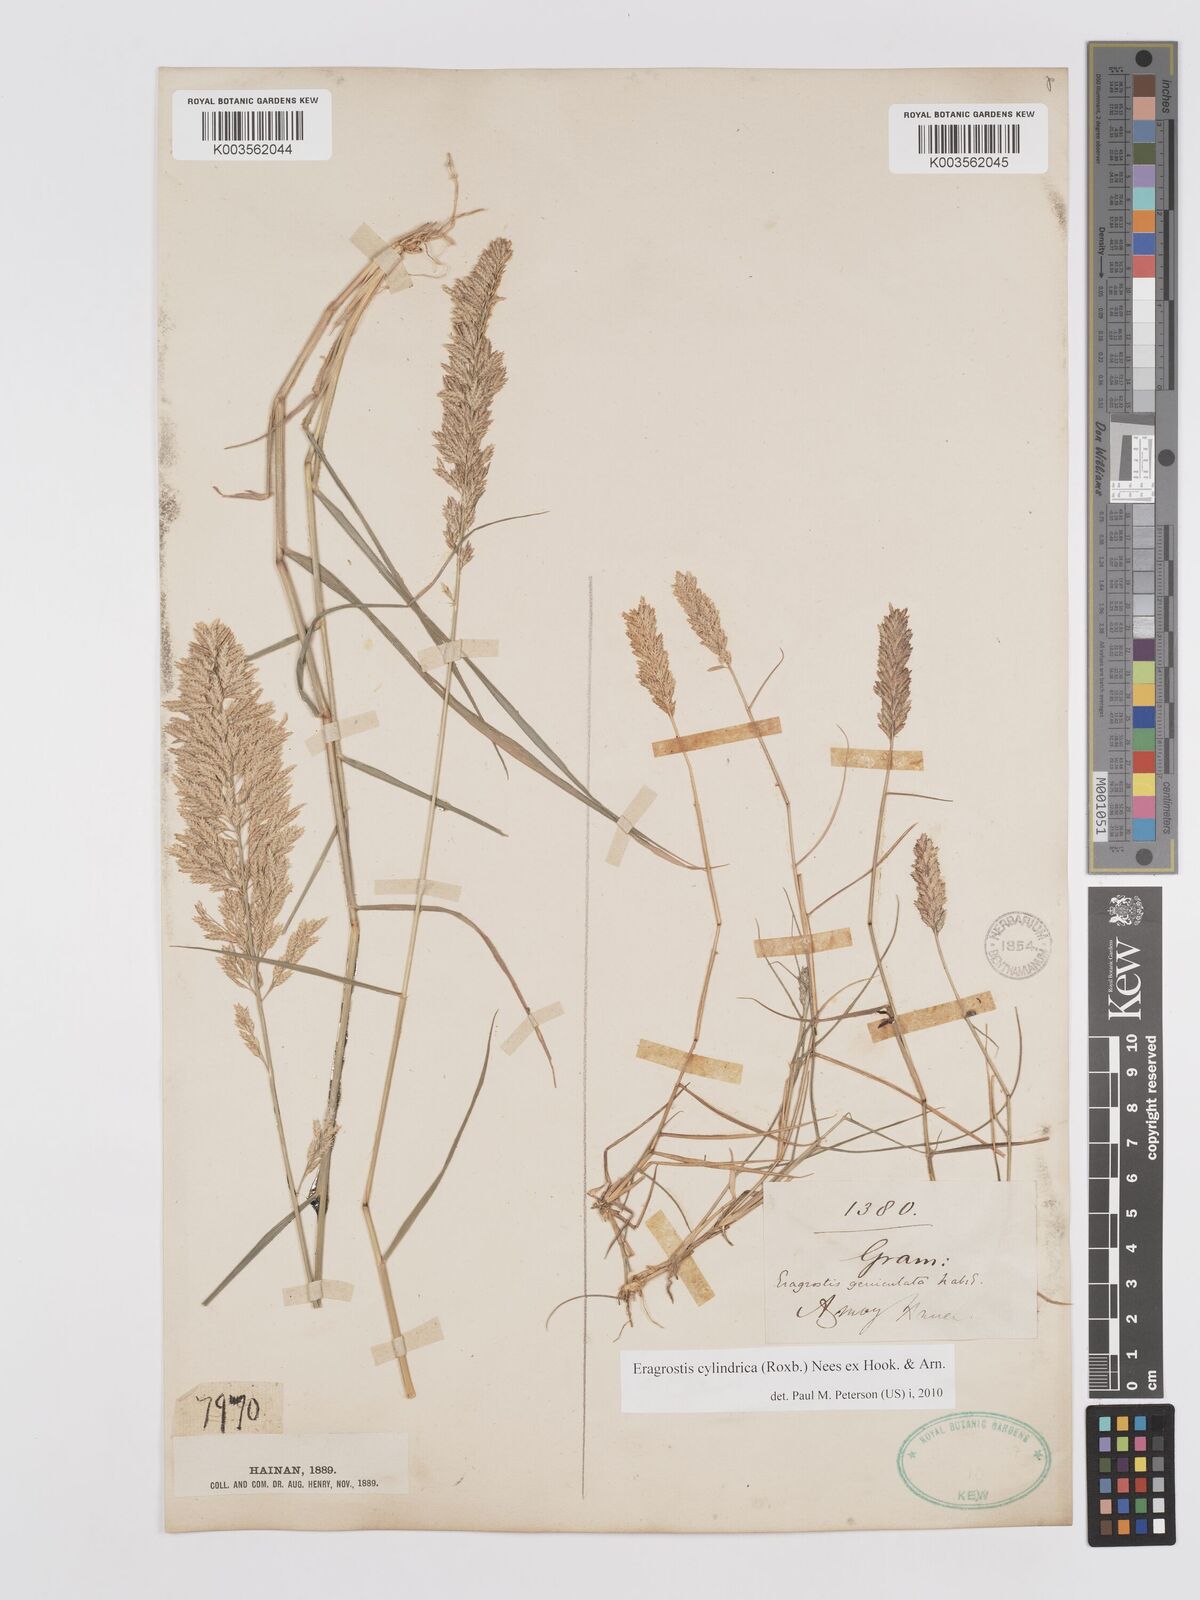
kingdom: Plantae
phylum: Tracheophyta
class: Liliopsida
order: Poales
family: Poaceae
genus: Eragrostis
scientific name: Eragrostis cylindrica
